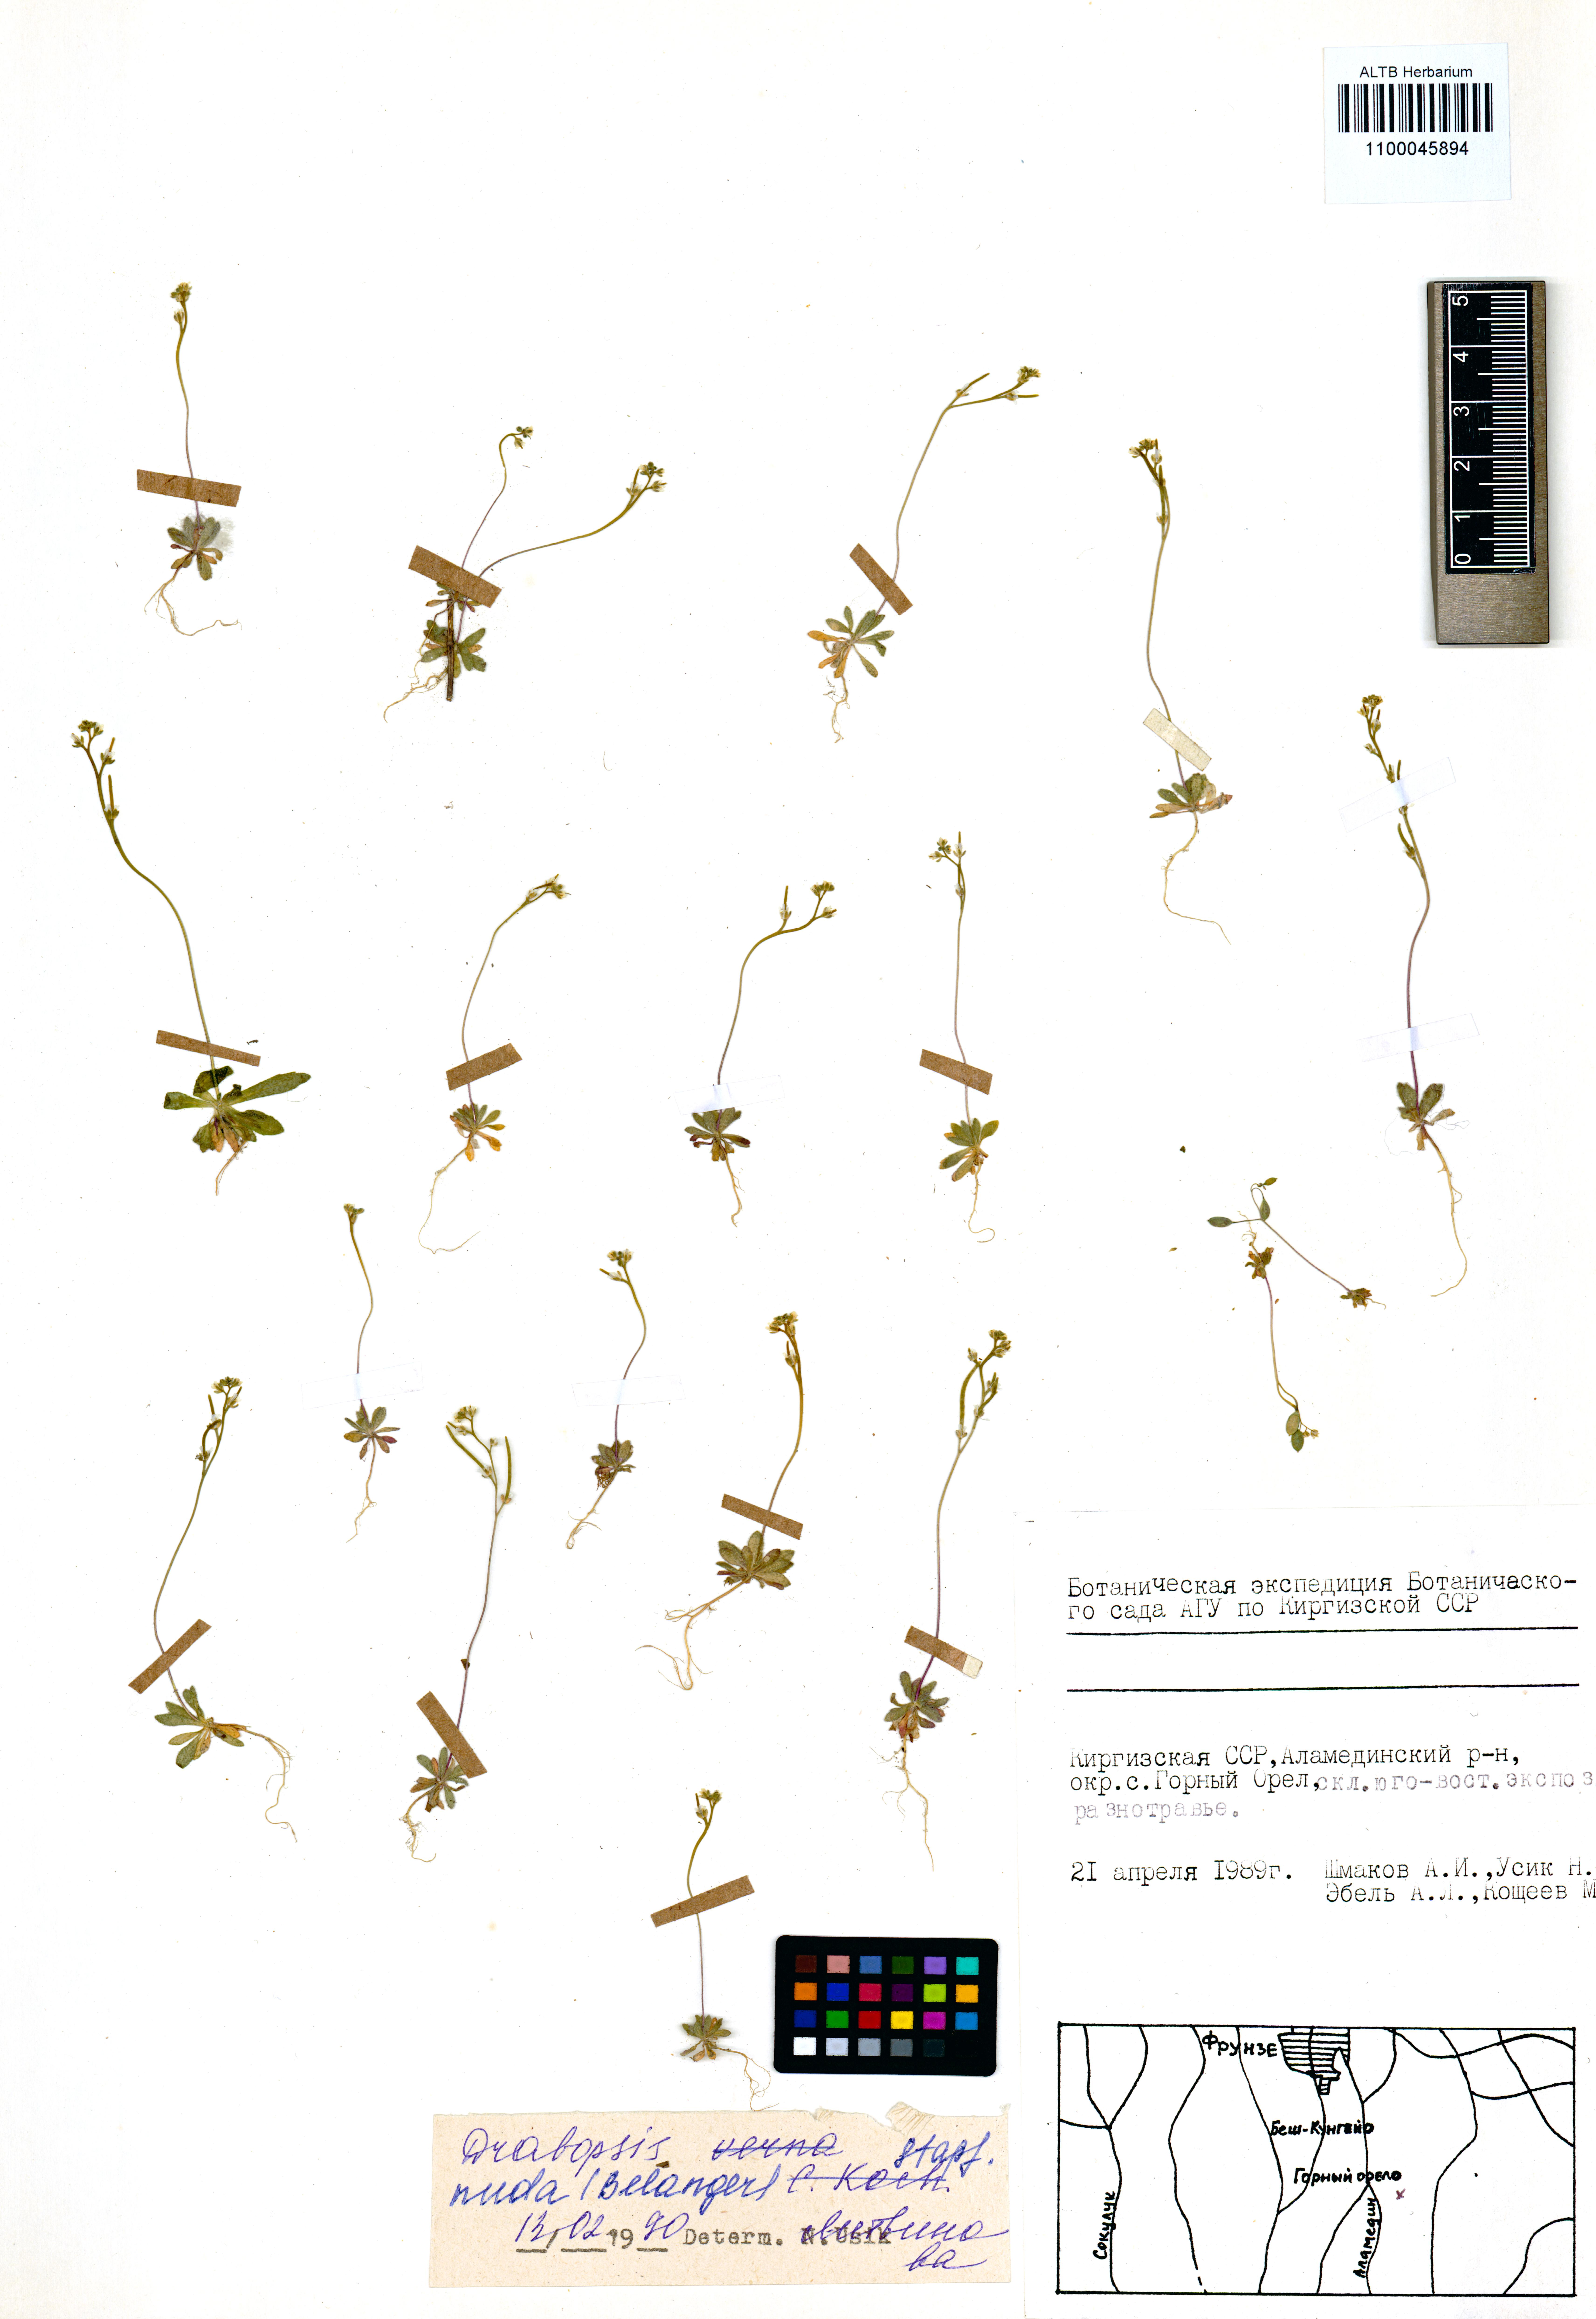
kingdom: Plantae
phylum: Tracheophyta
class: Magnoliopsida
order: Brassicales
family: Brassicaceae
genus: Draba
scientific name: Draba nuda
